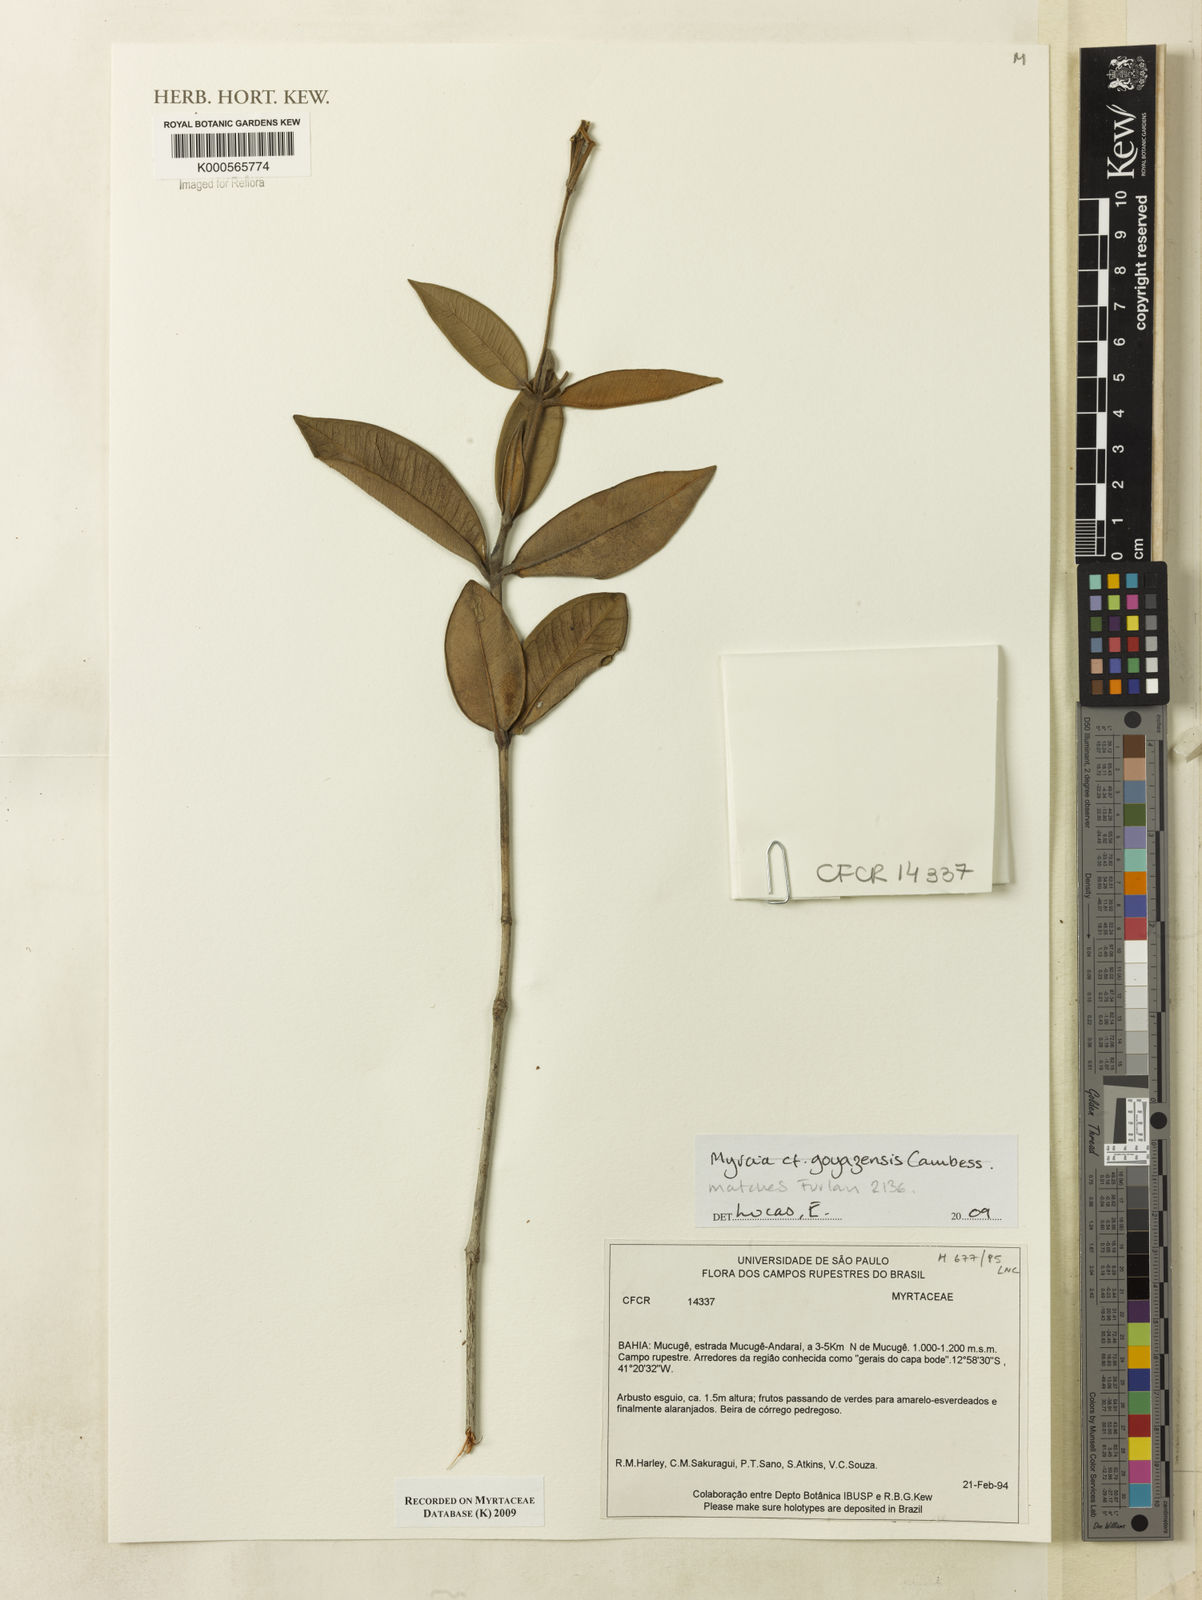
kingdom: Plantae
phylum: Tracheophyta
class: Magnoliopsida
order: Myrtales
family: Myrtaceae
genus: Myrcia
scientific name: Myrcia goyazensis
